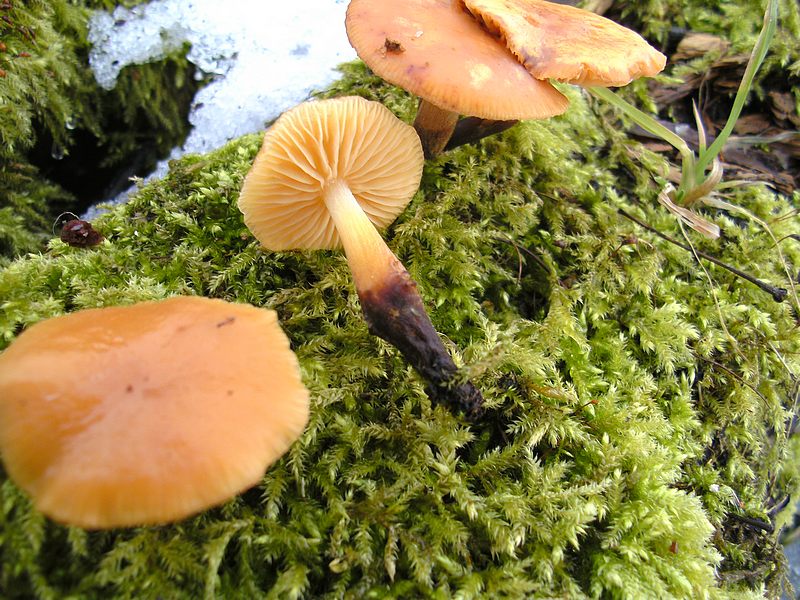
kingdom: Fungi
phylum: Basidiomycota
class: Agaricomycetes
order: Agaricales
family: Physalacriaceae
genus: Flammulina
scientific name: Flammulina elastica
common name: pile-fløjlsfod
